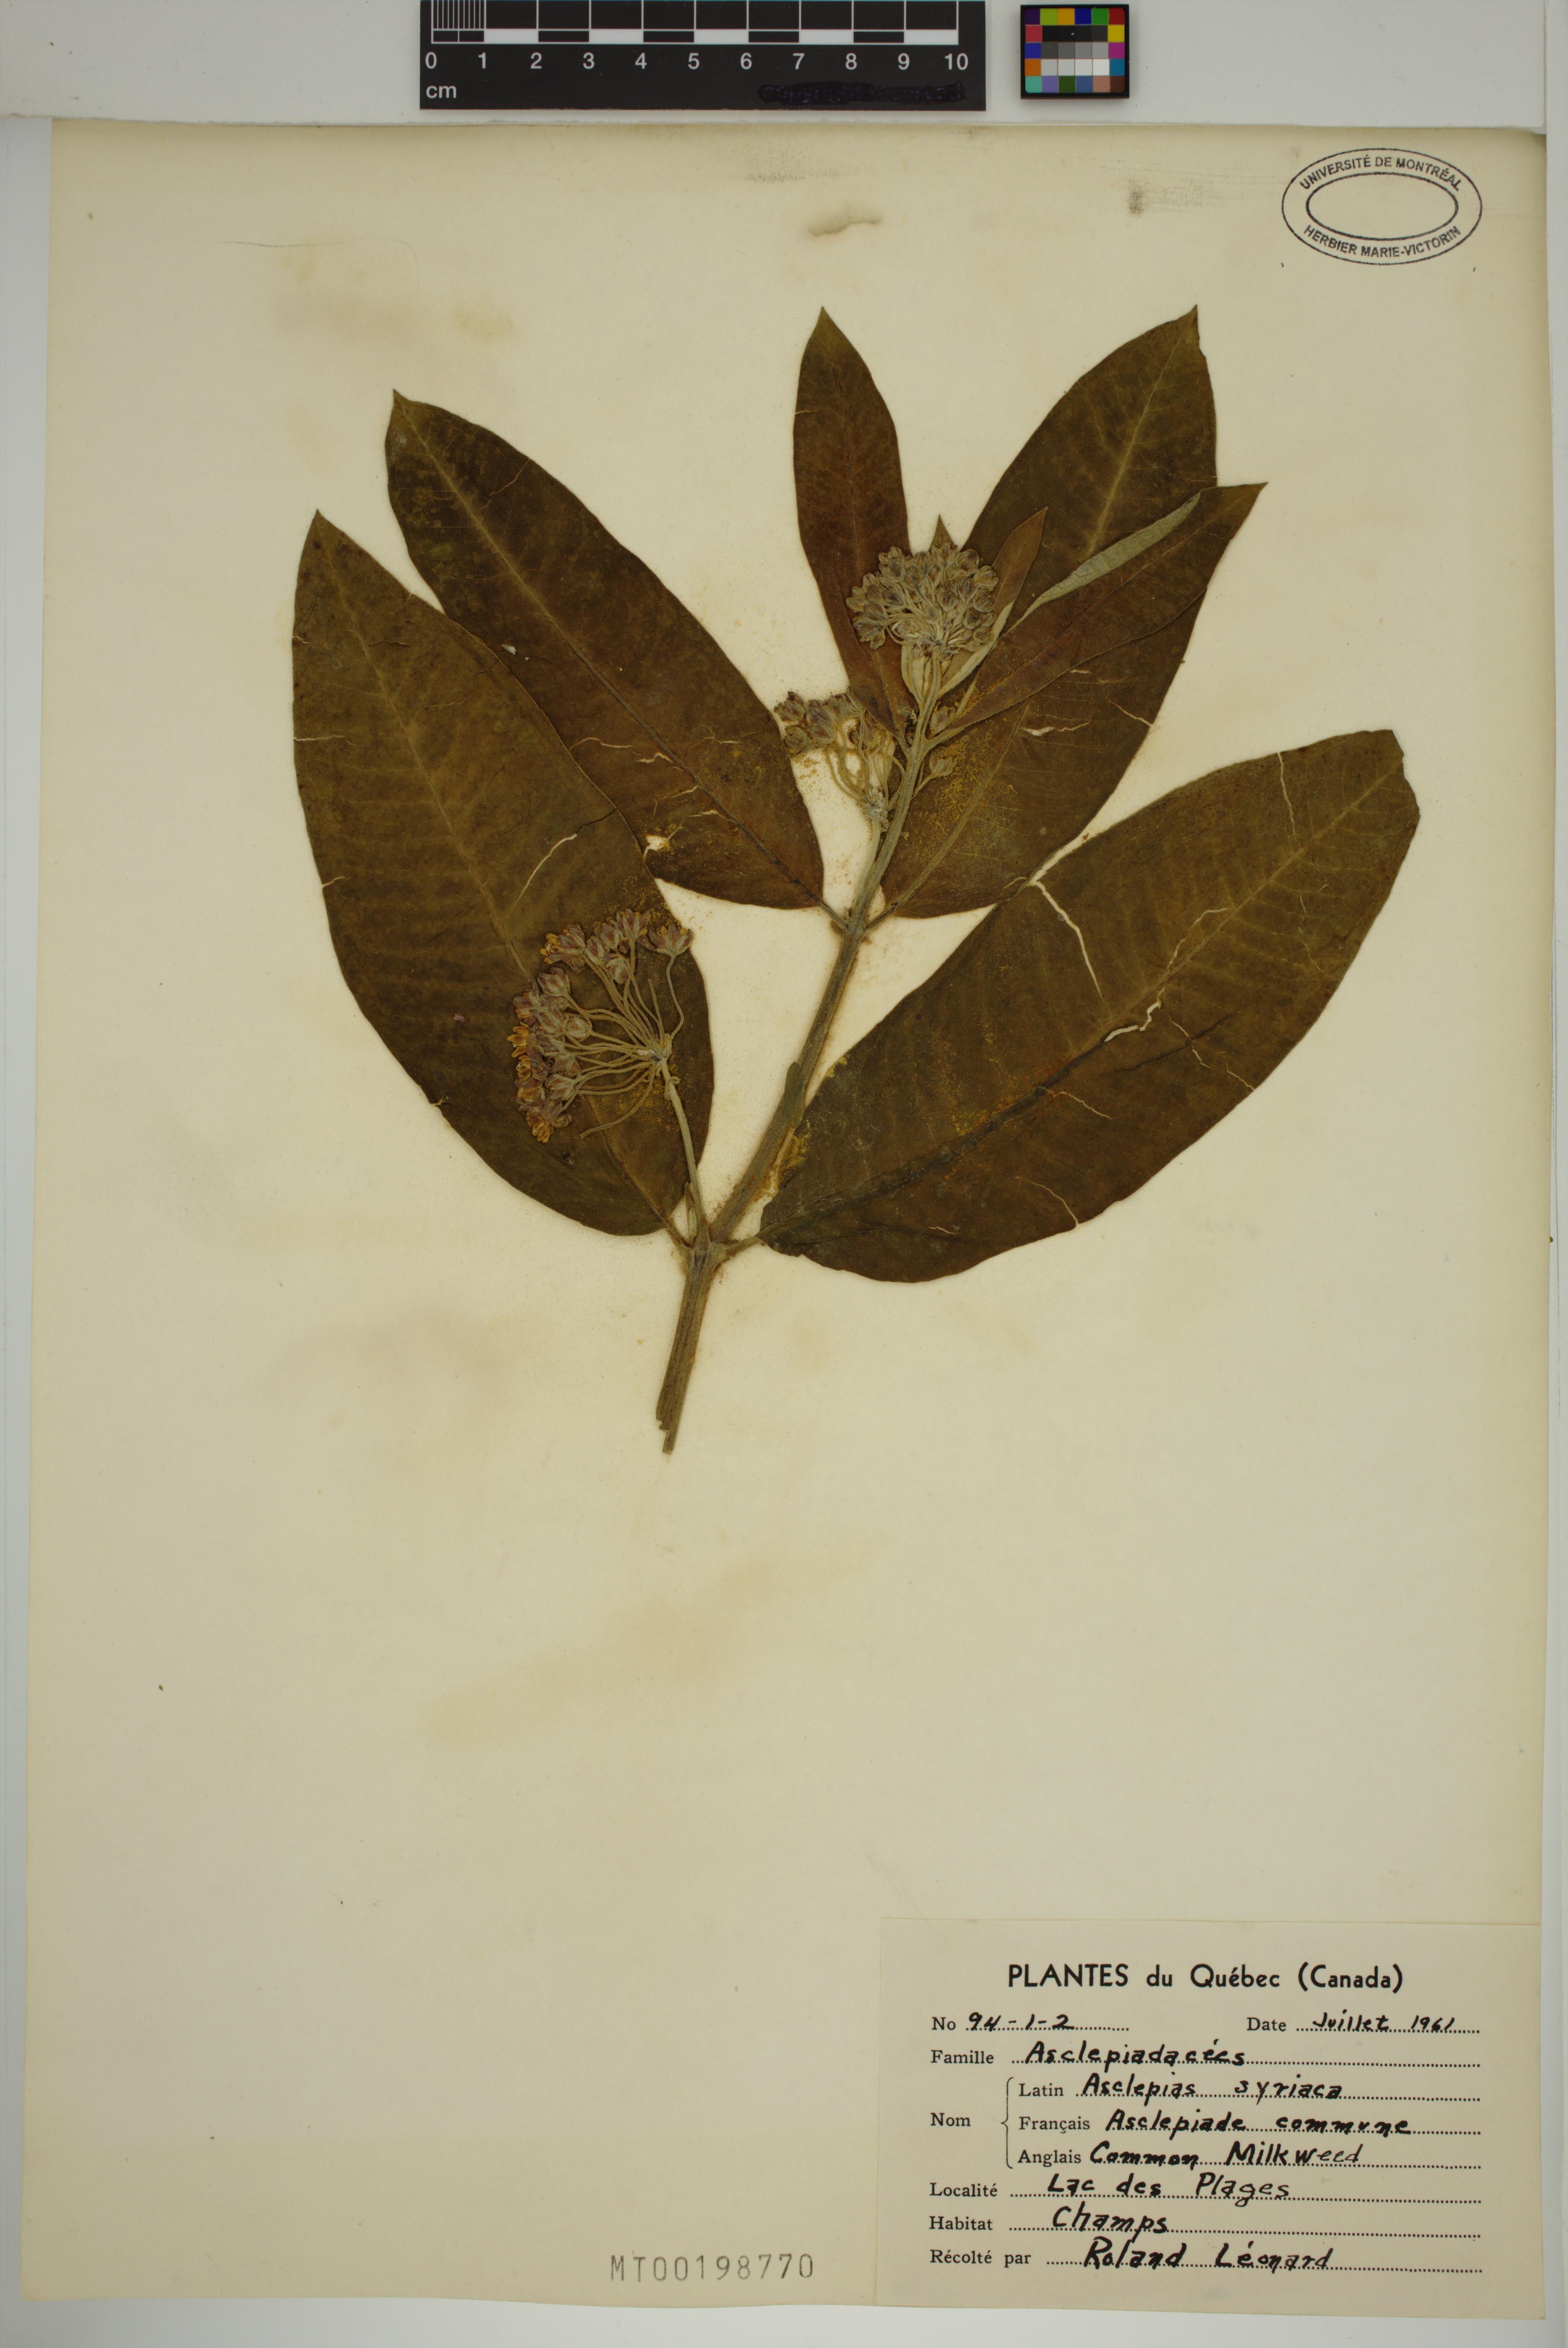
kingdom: Plantae
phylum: Tracheophyta
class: Magnoliopsida
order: Gentianales
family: Apocynaceae
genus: Asclepias
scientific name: Asclepias syriaca
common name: Common milkweed
